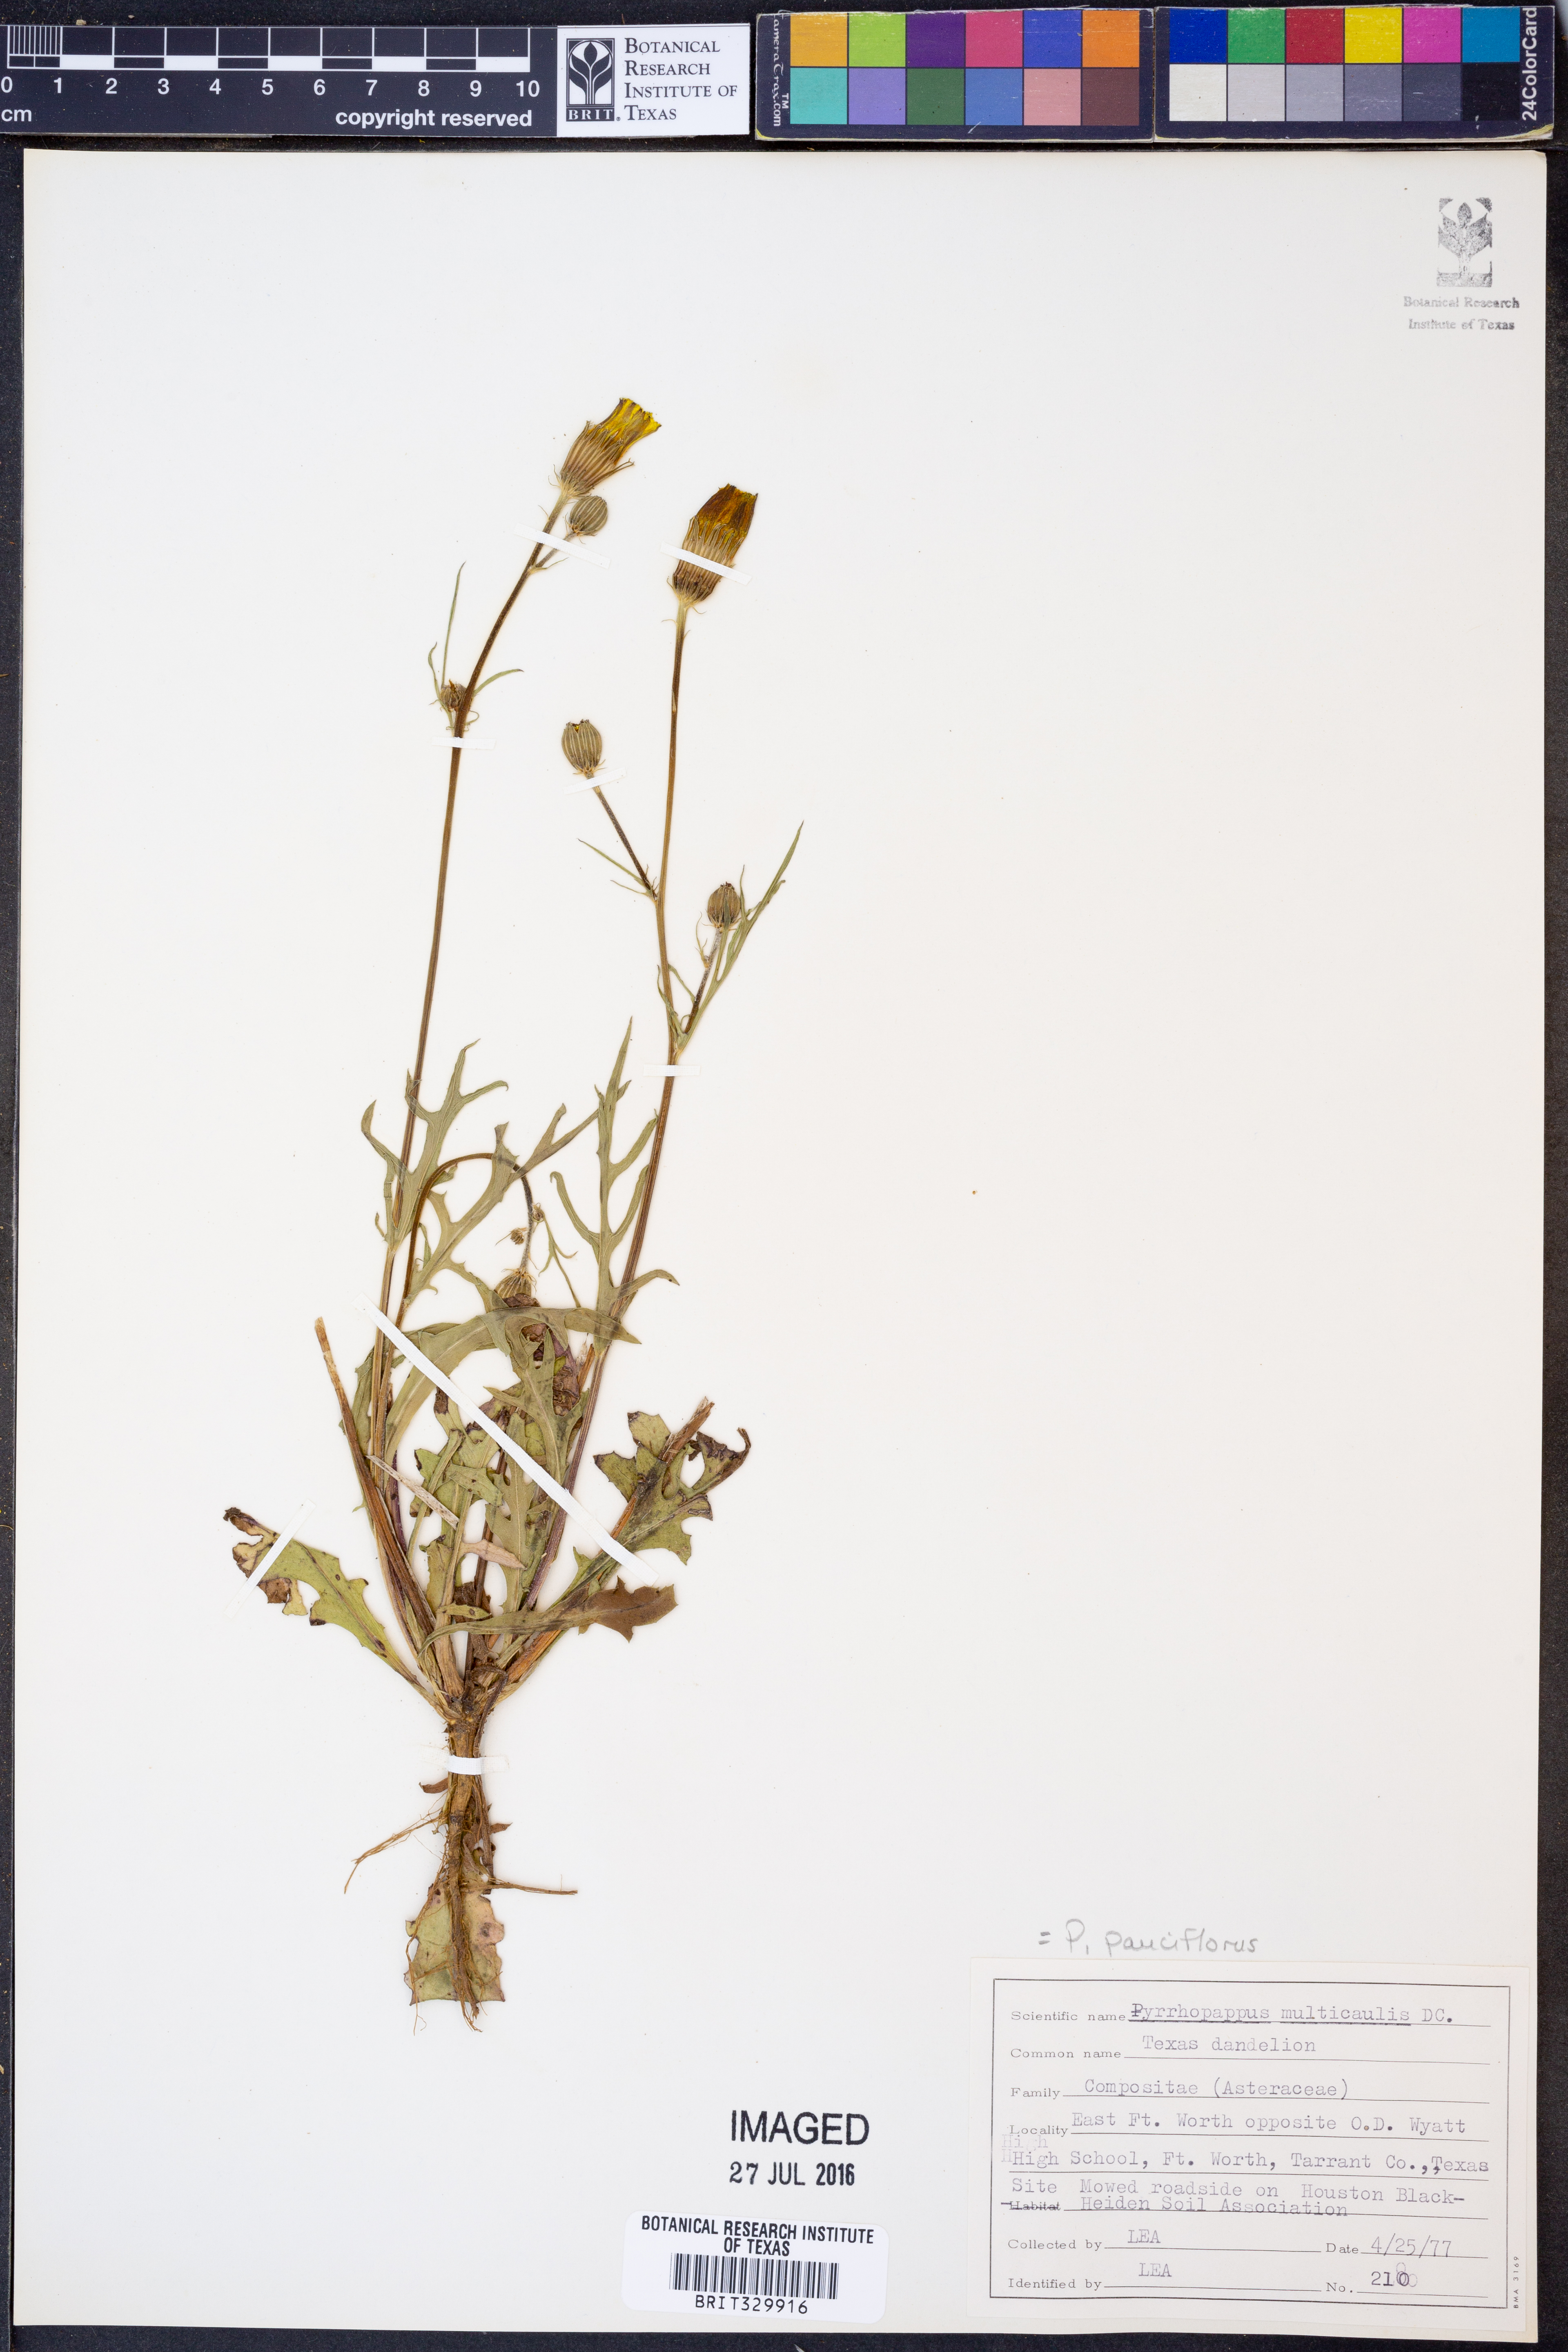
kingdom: Plantae
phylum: Tracheophyta
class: Magnoliopsida
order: Asterales
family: Asteraceae
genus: Pyrrhopappus
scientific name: Pyrrhopappus pauciflorus
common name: Texas false dandelion
